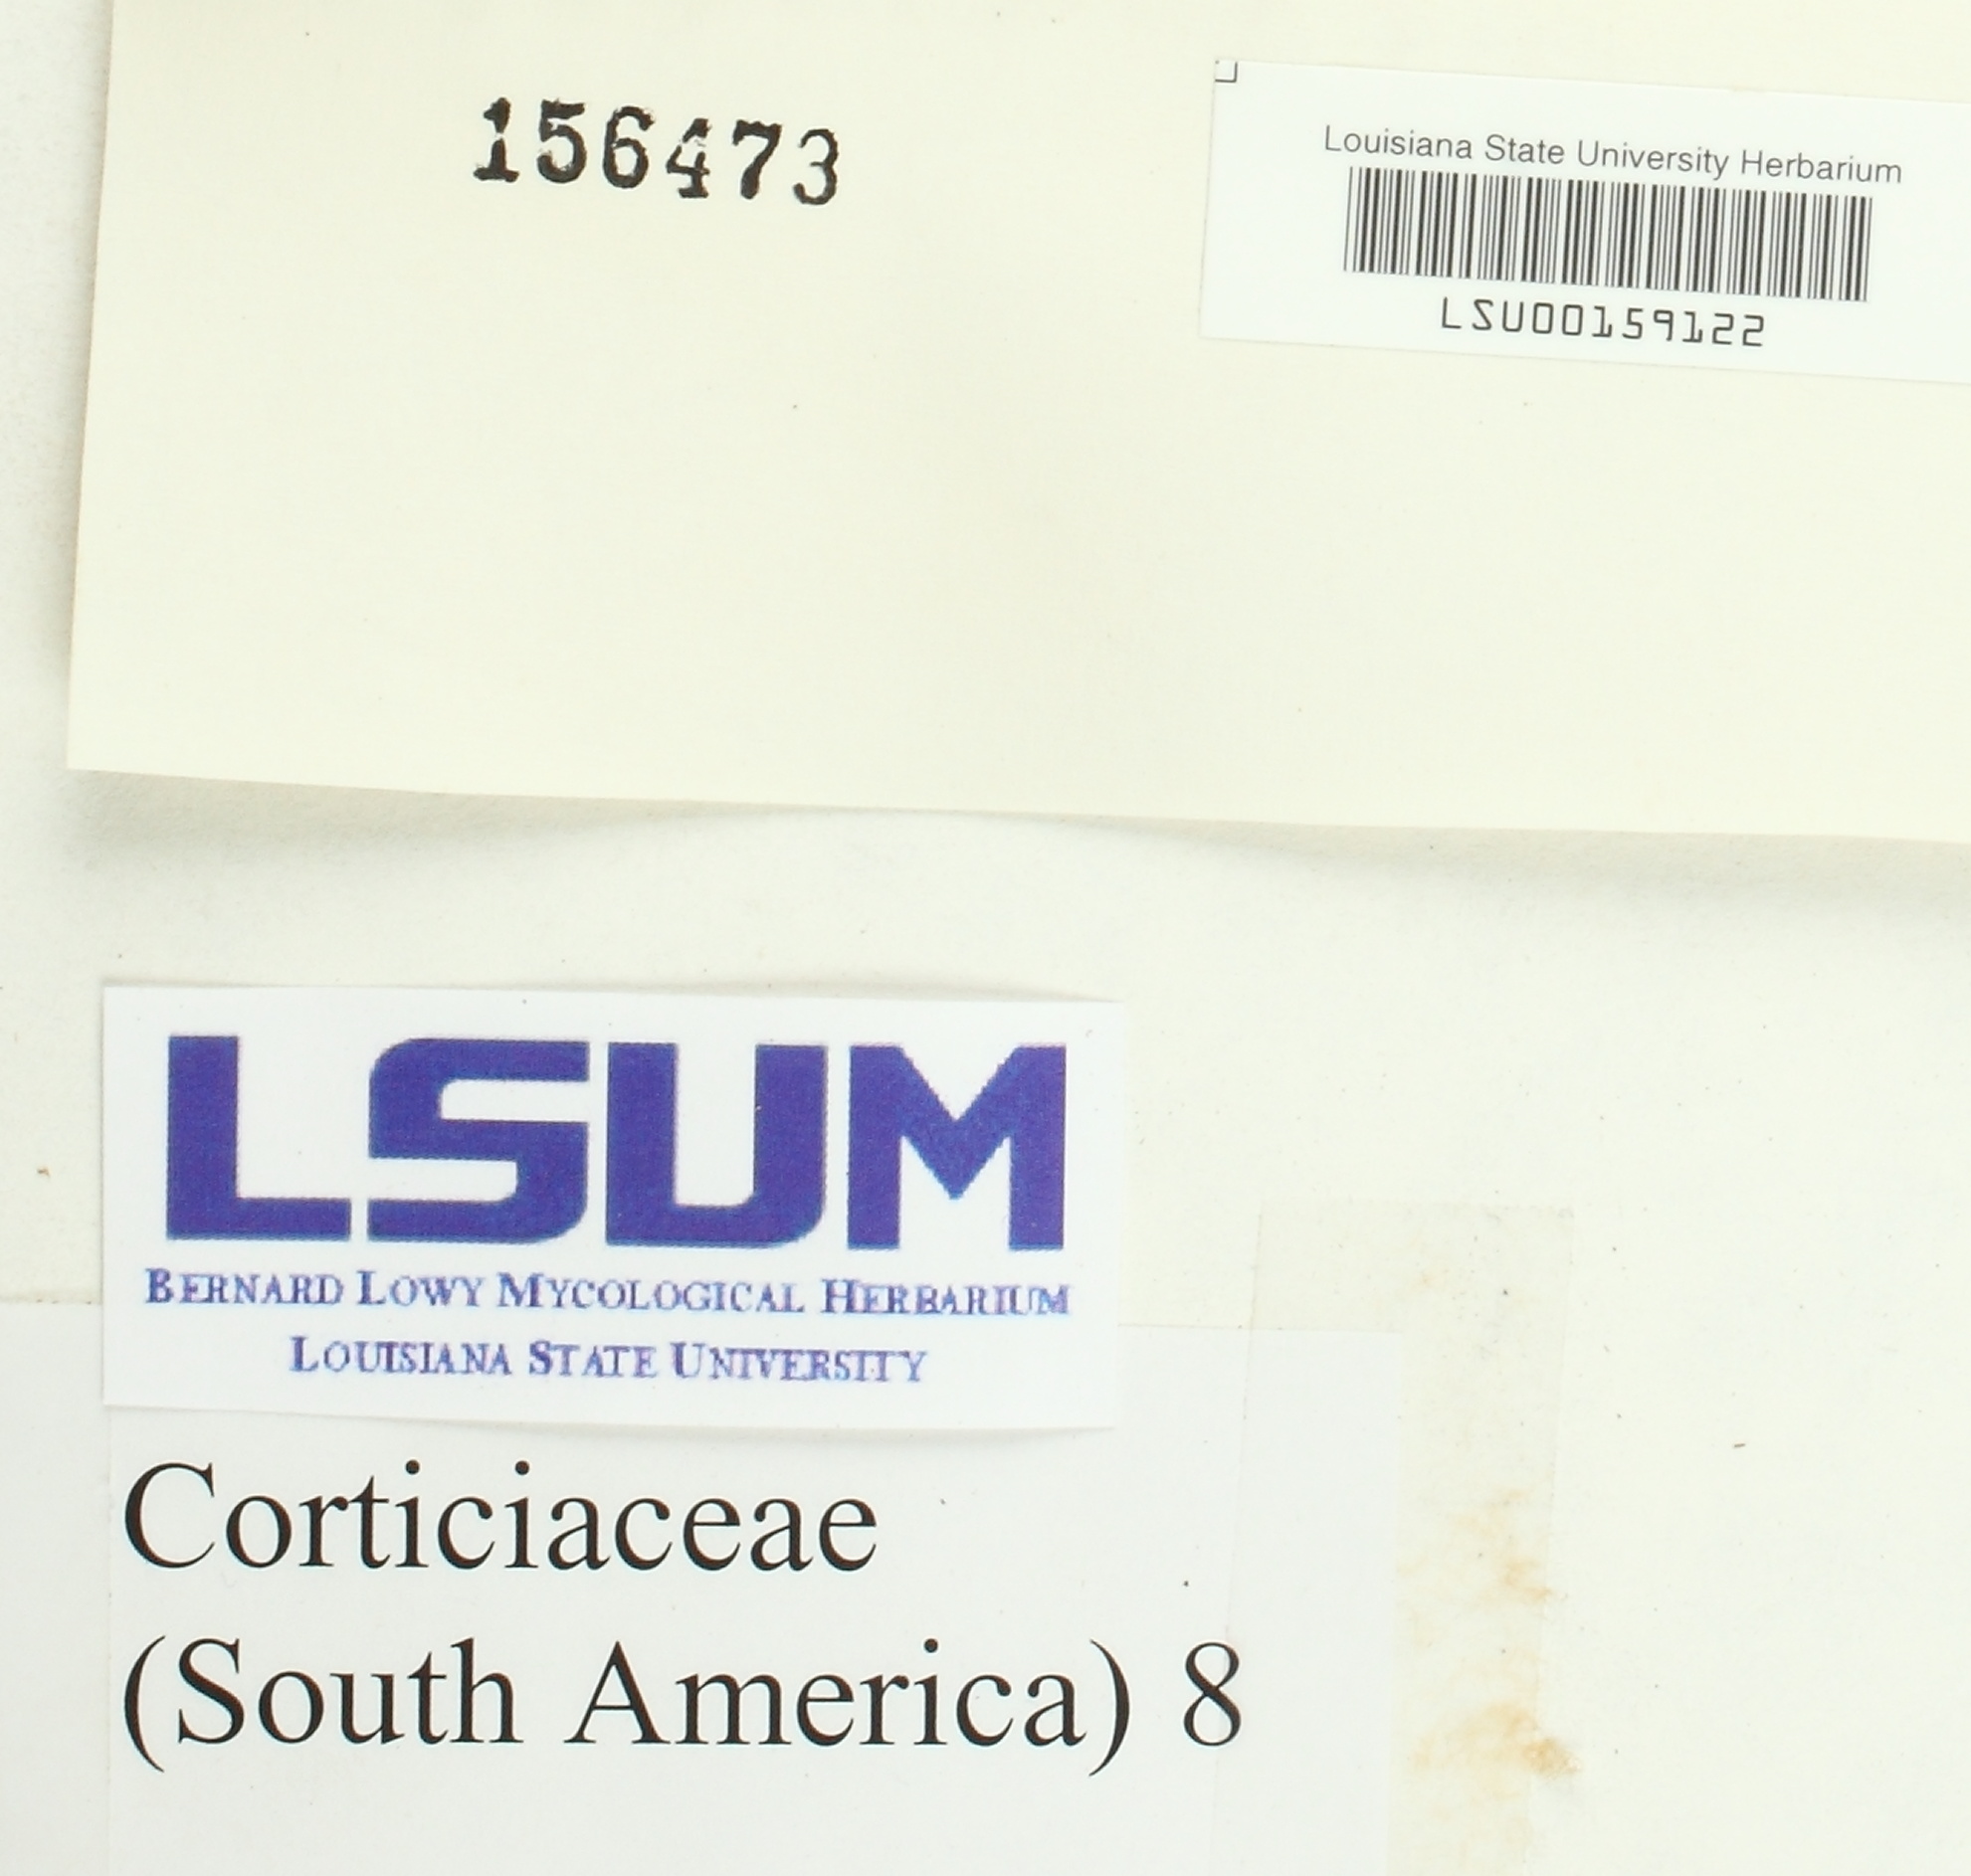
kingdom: Fungi
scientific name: Fungi
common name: Fungi
